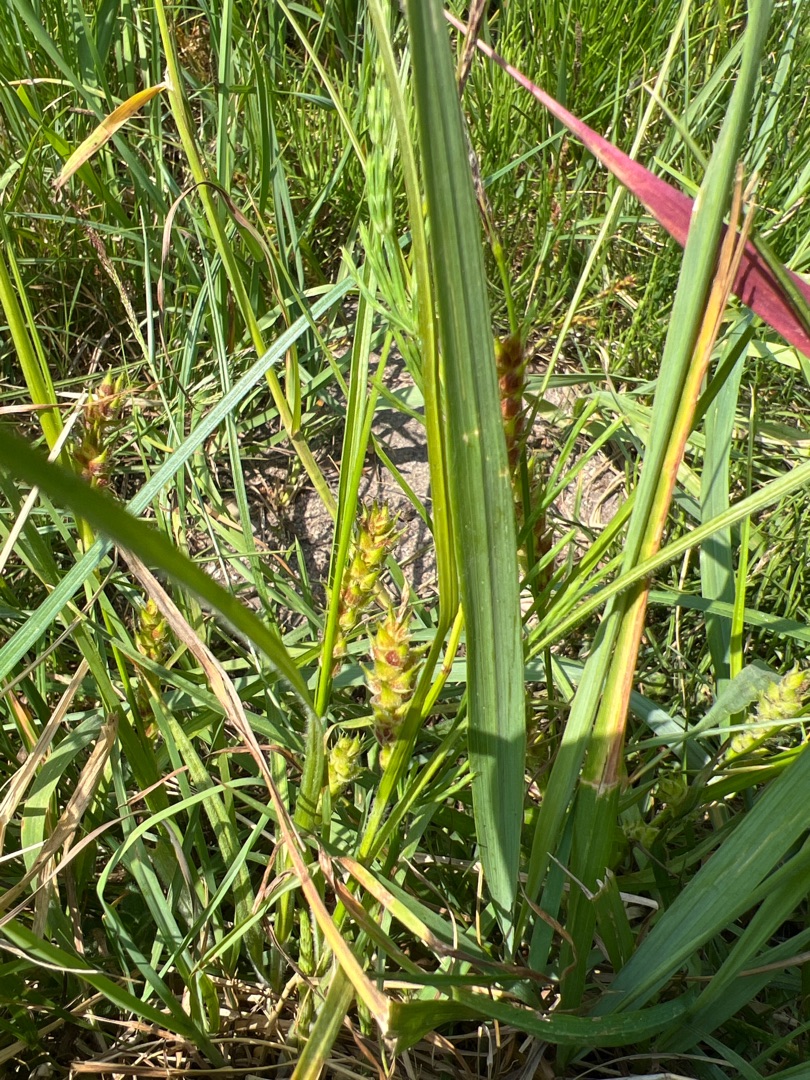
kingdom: Plantae
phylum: Tracheophyta
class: Liliopsida
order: Poales
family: Cyperaceae
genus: Carex
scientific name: Carex hirta
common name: Håret star
